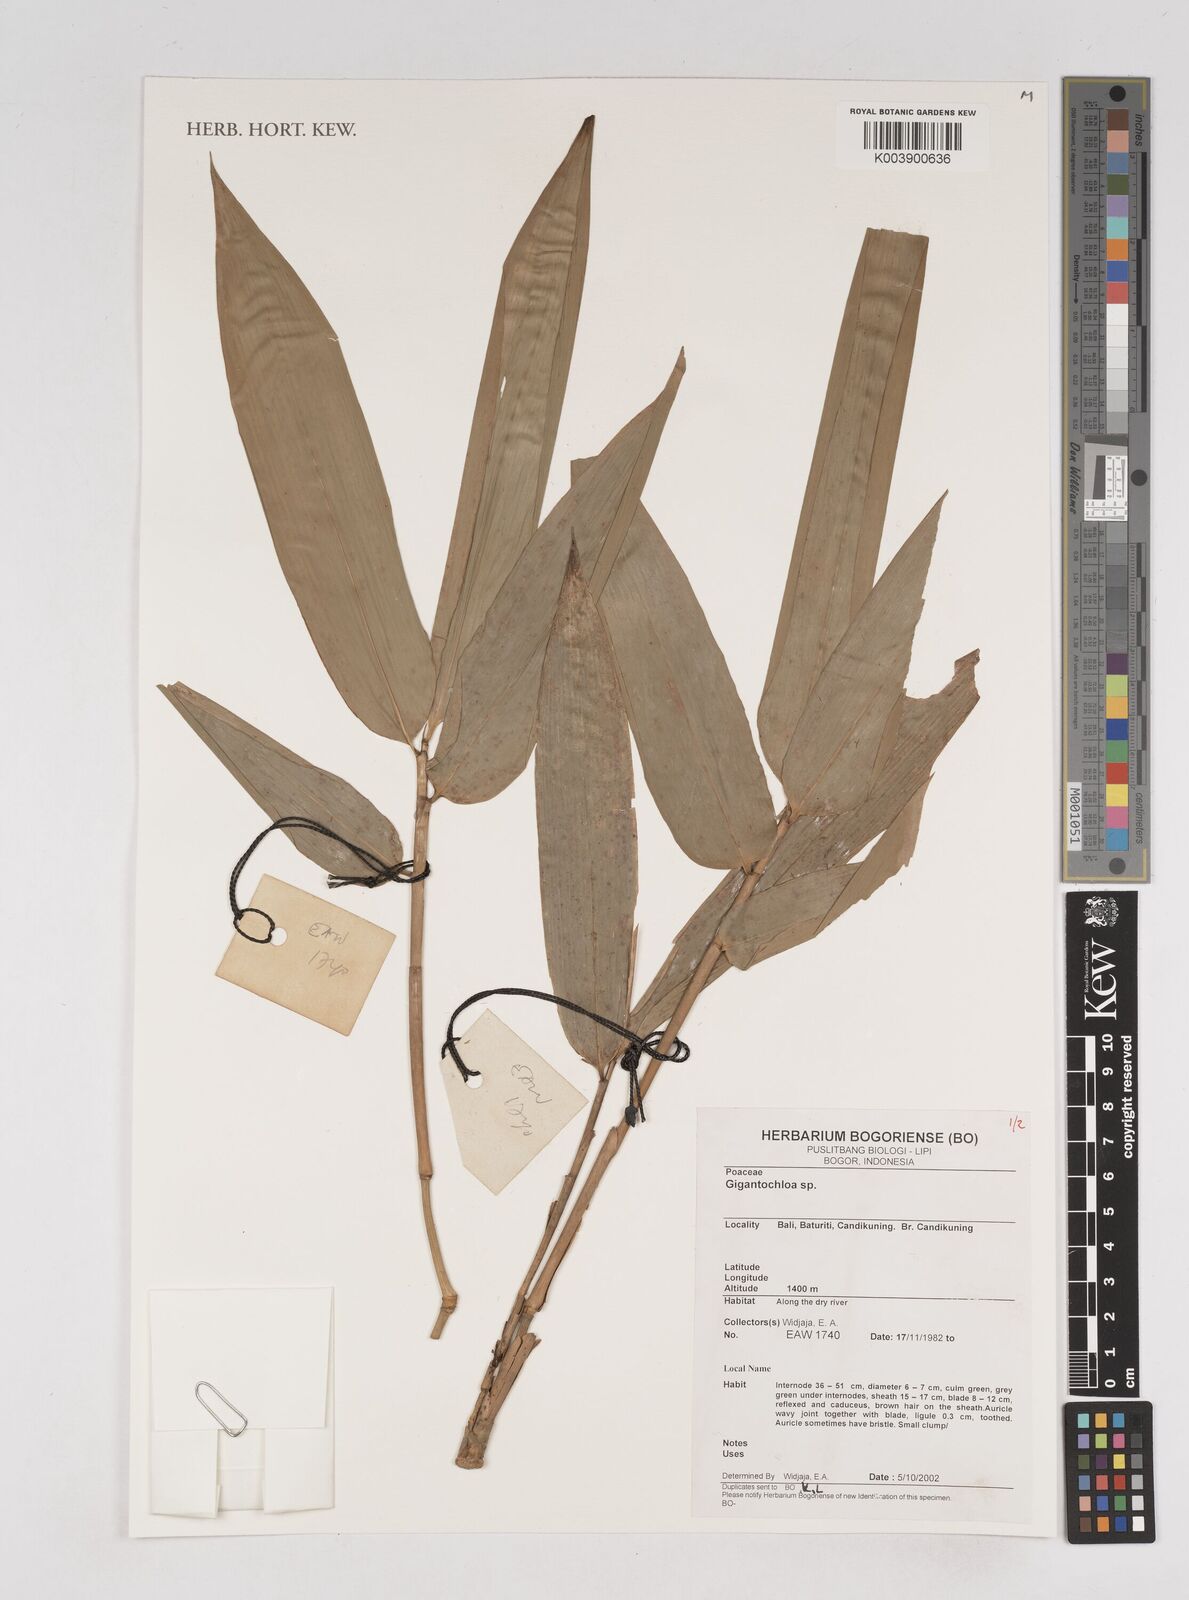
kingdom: Plantae
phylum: Tracheophyta
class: Liliopsida
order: Poales
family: Poaceae
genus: Gigantochloa
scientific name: Gigantochloa
